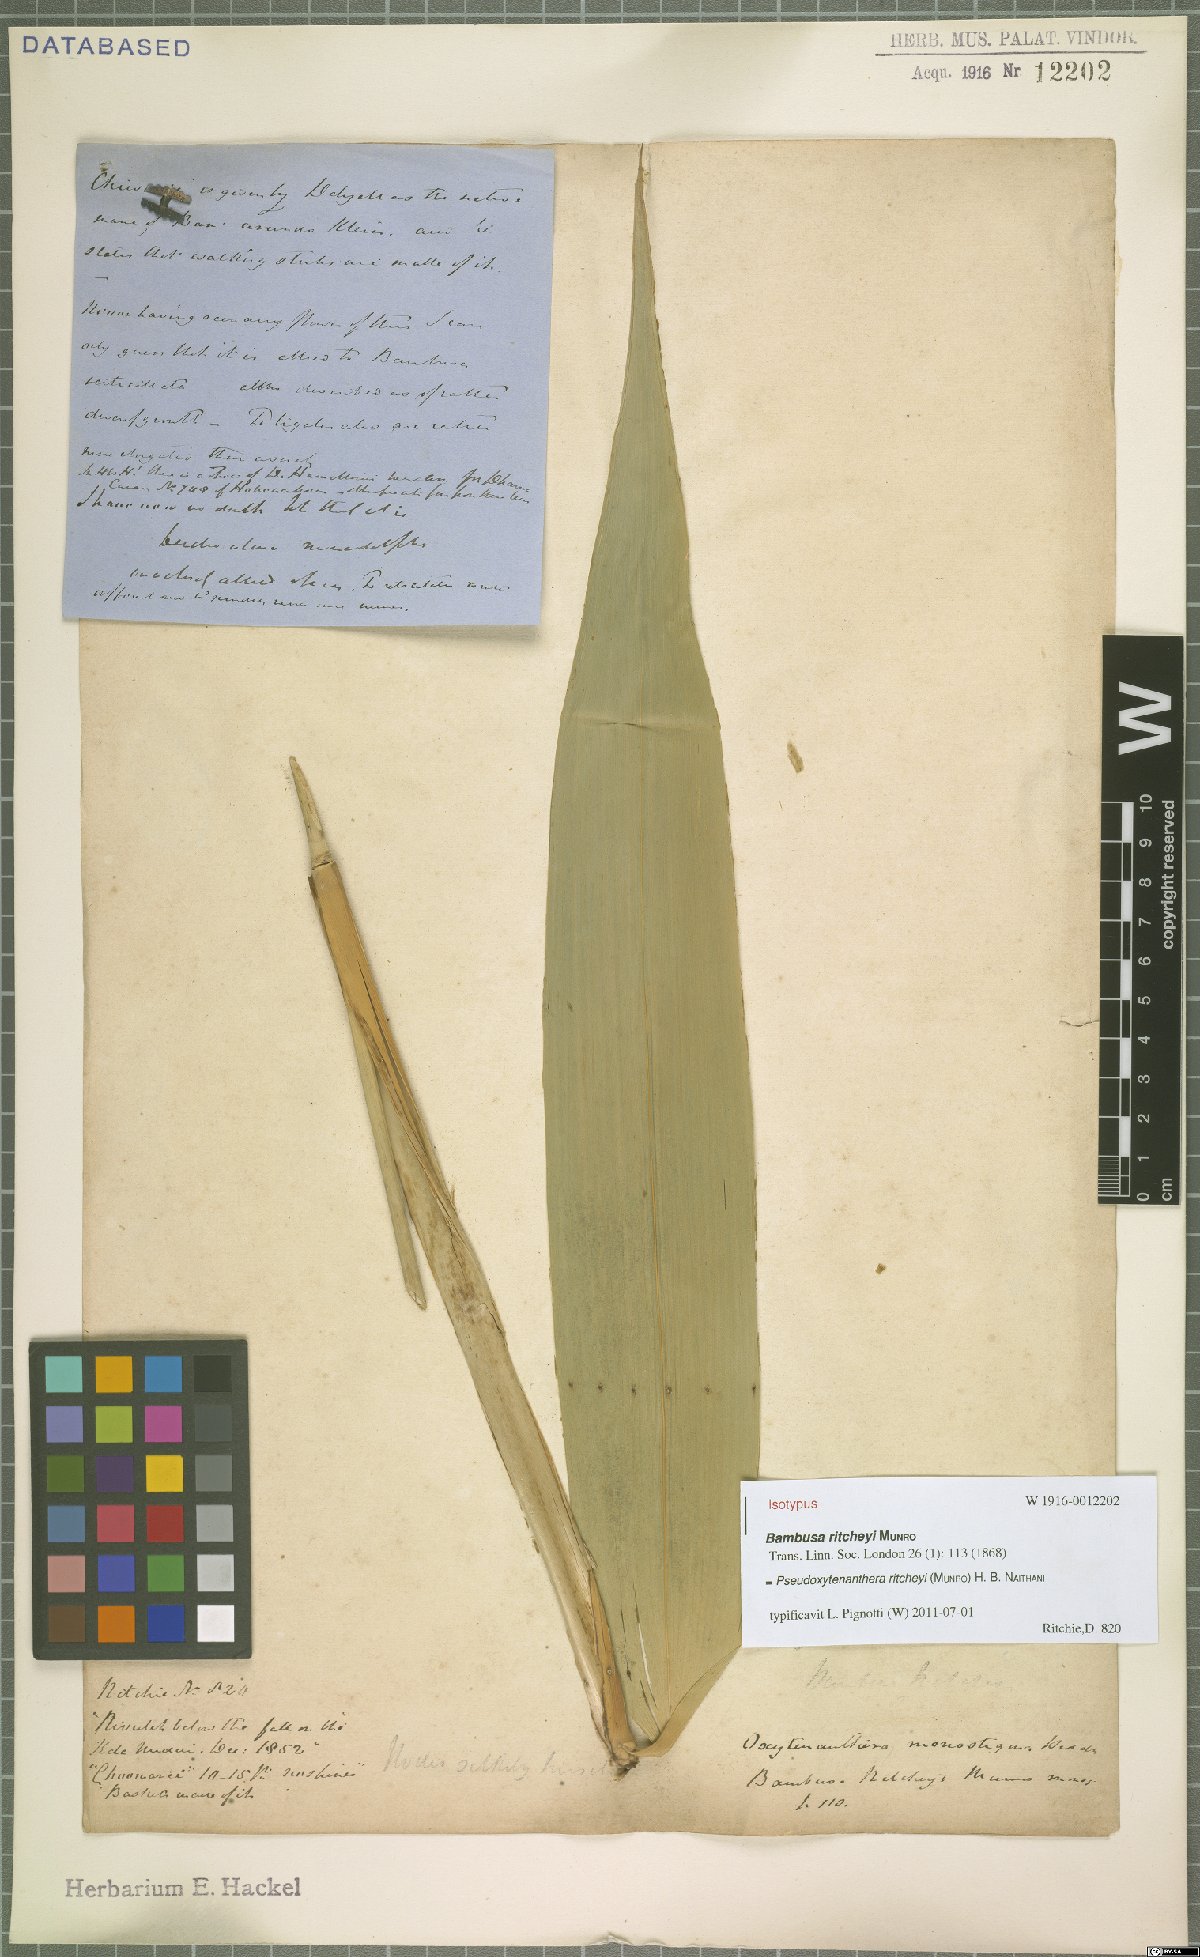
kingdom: Plantae
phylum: Tracheophyta
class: Liliopsida
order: Poales
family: Poaceae
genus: Pseudoxytenanthera
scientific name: Pseudoxytenanthera ritcheyi
